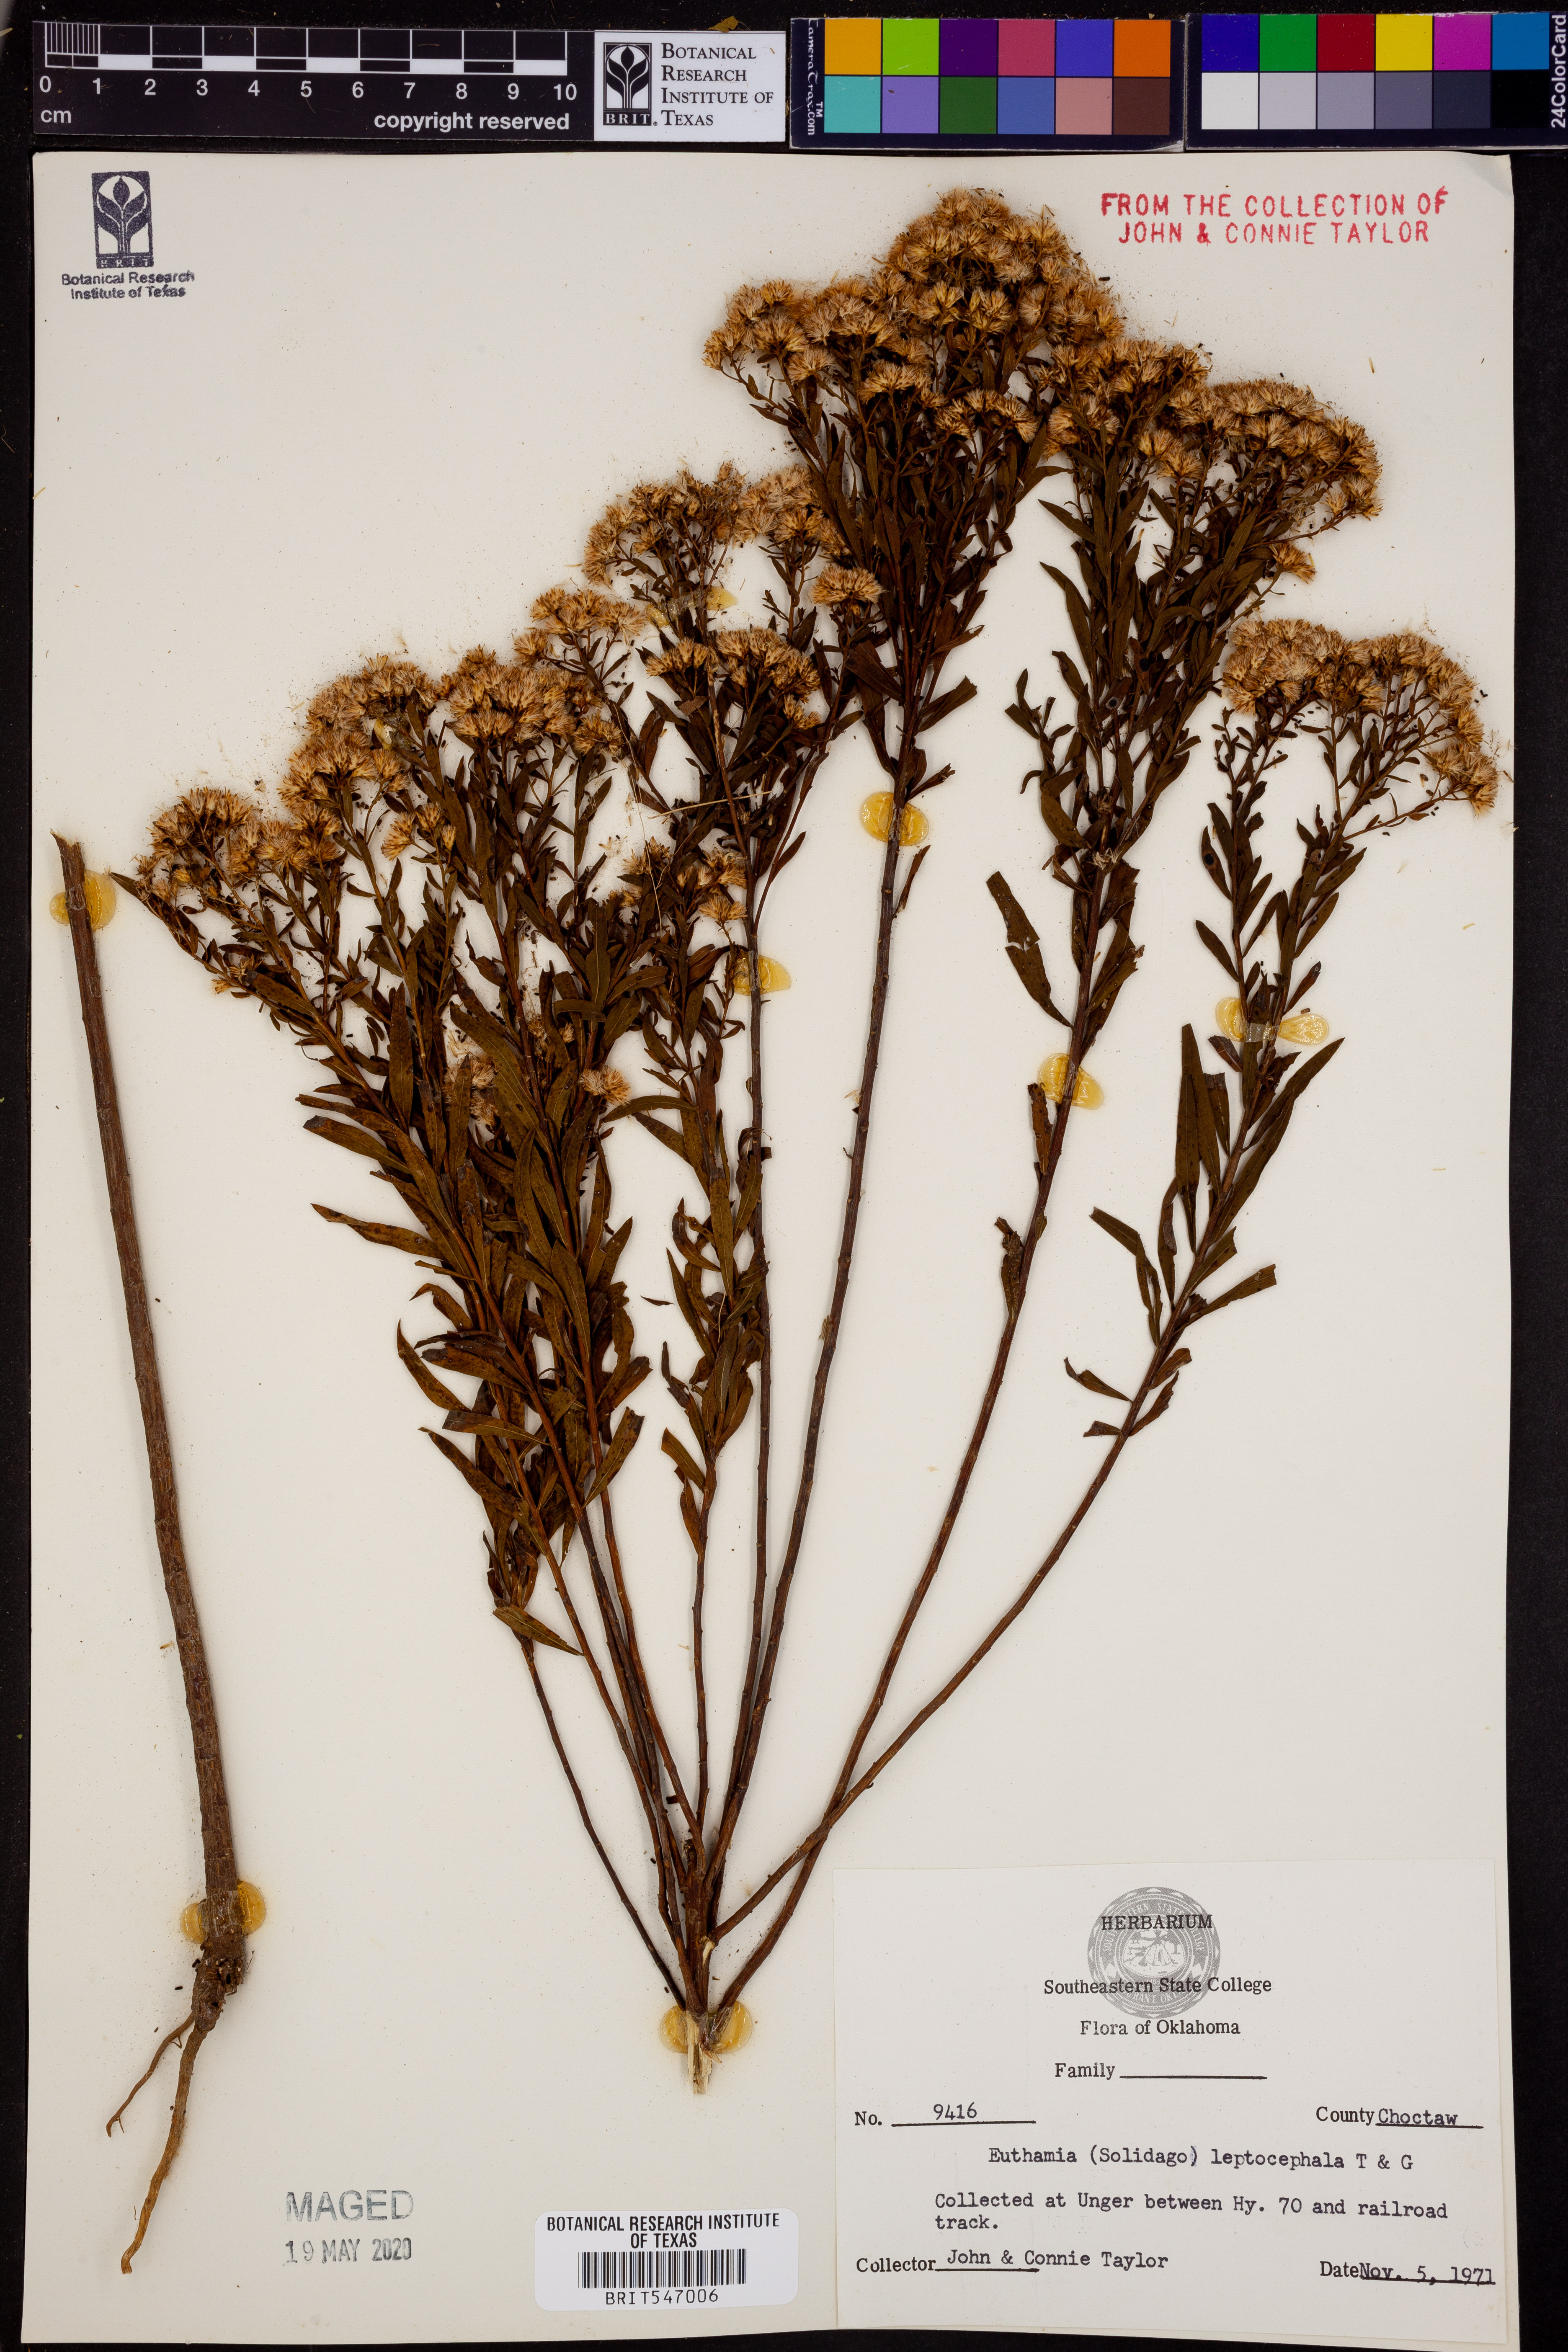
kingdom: Plantae
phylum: Tracheophyta
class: Magnoliopsida
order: Asterales
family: Asteraceae
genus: Euthamia
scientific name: Euthamia leptocephala
